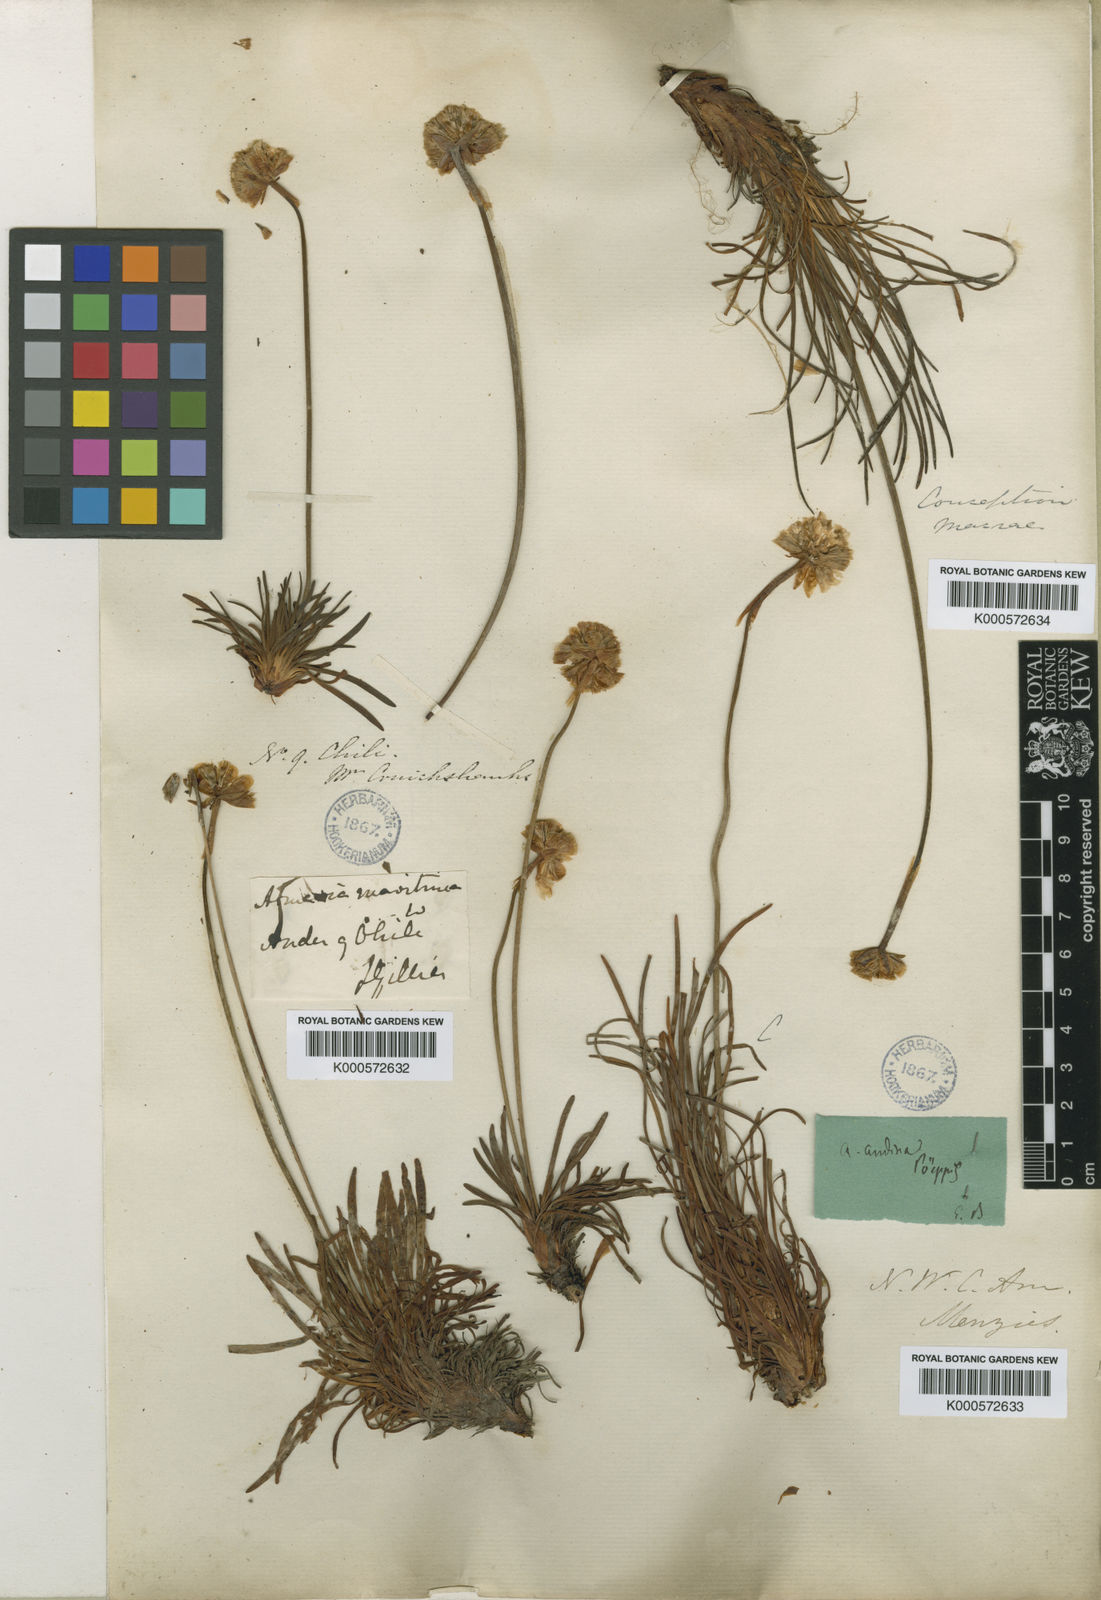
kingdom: Plantae
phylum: Tracheophyta
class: Magnoliopsida
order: Caryophyllales
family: Plumbaginaceae
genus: Armeria
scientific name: Armeria curvifolia
